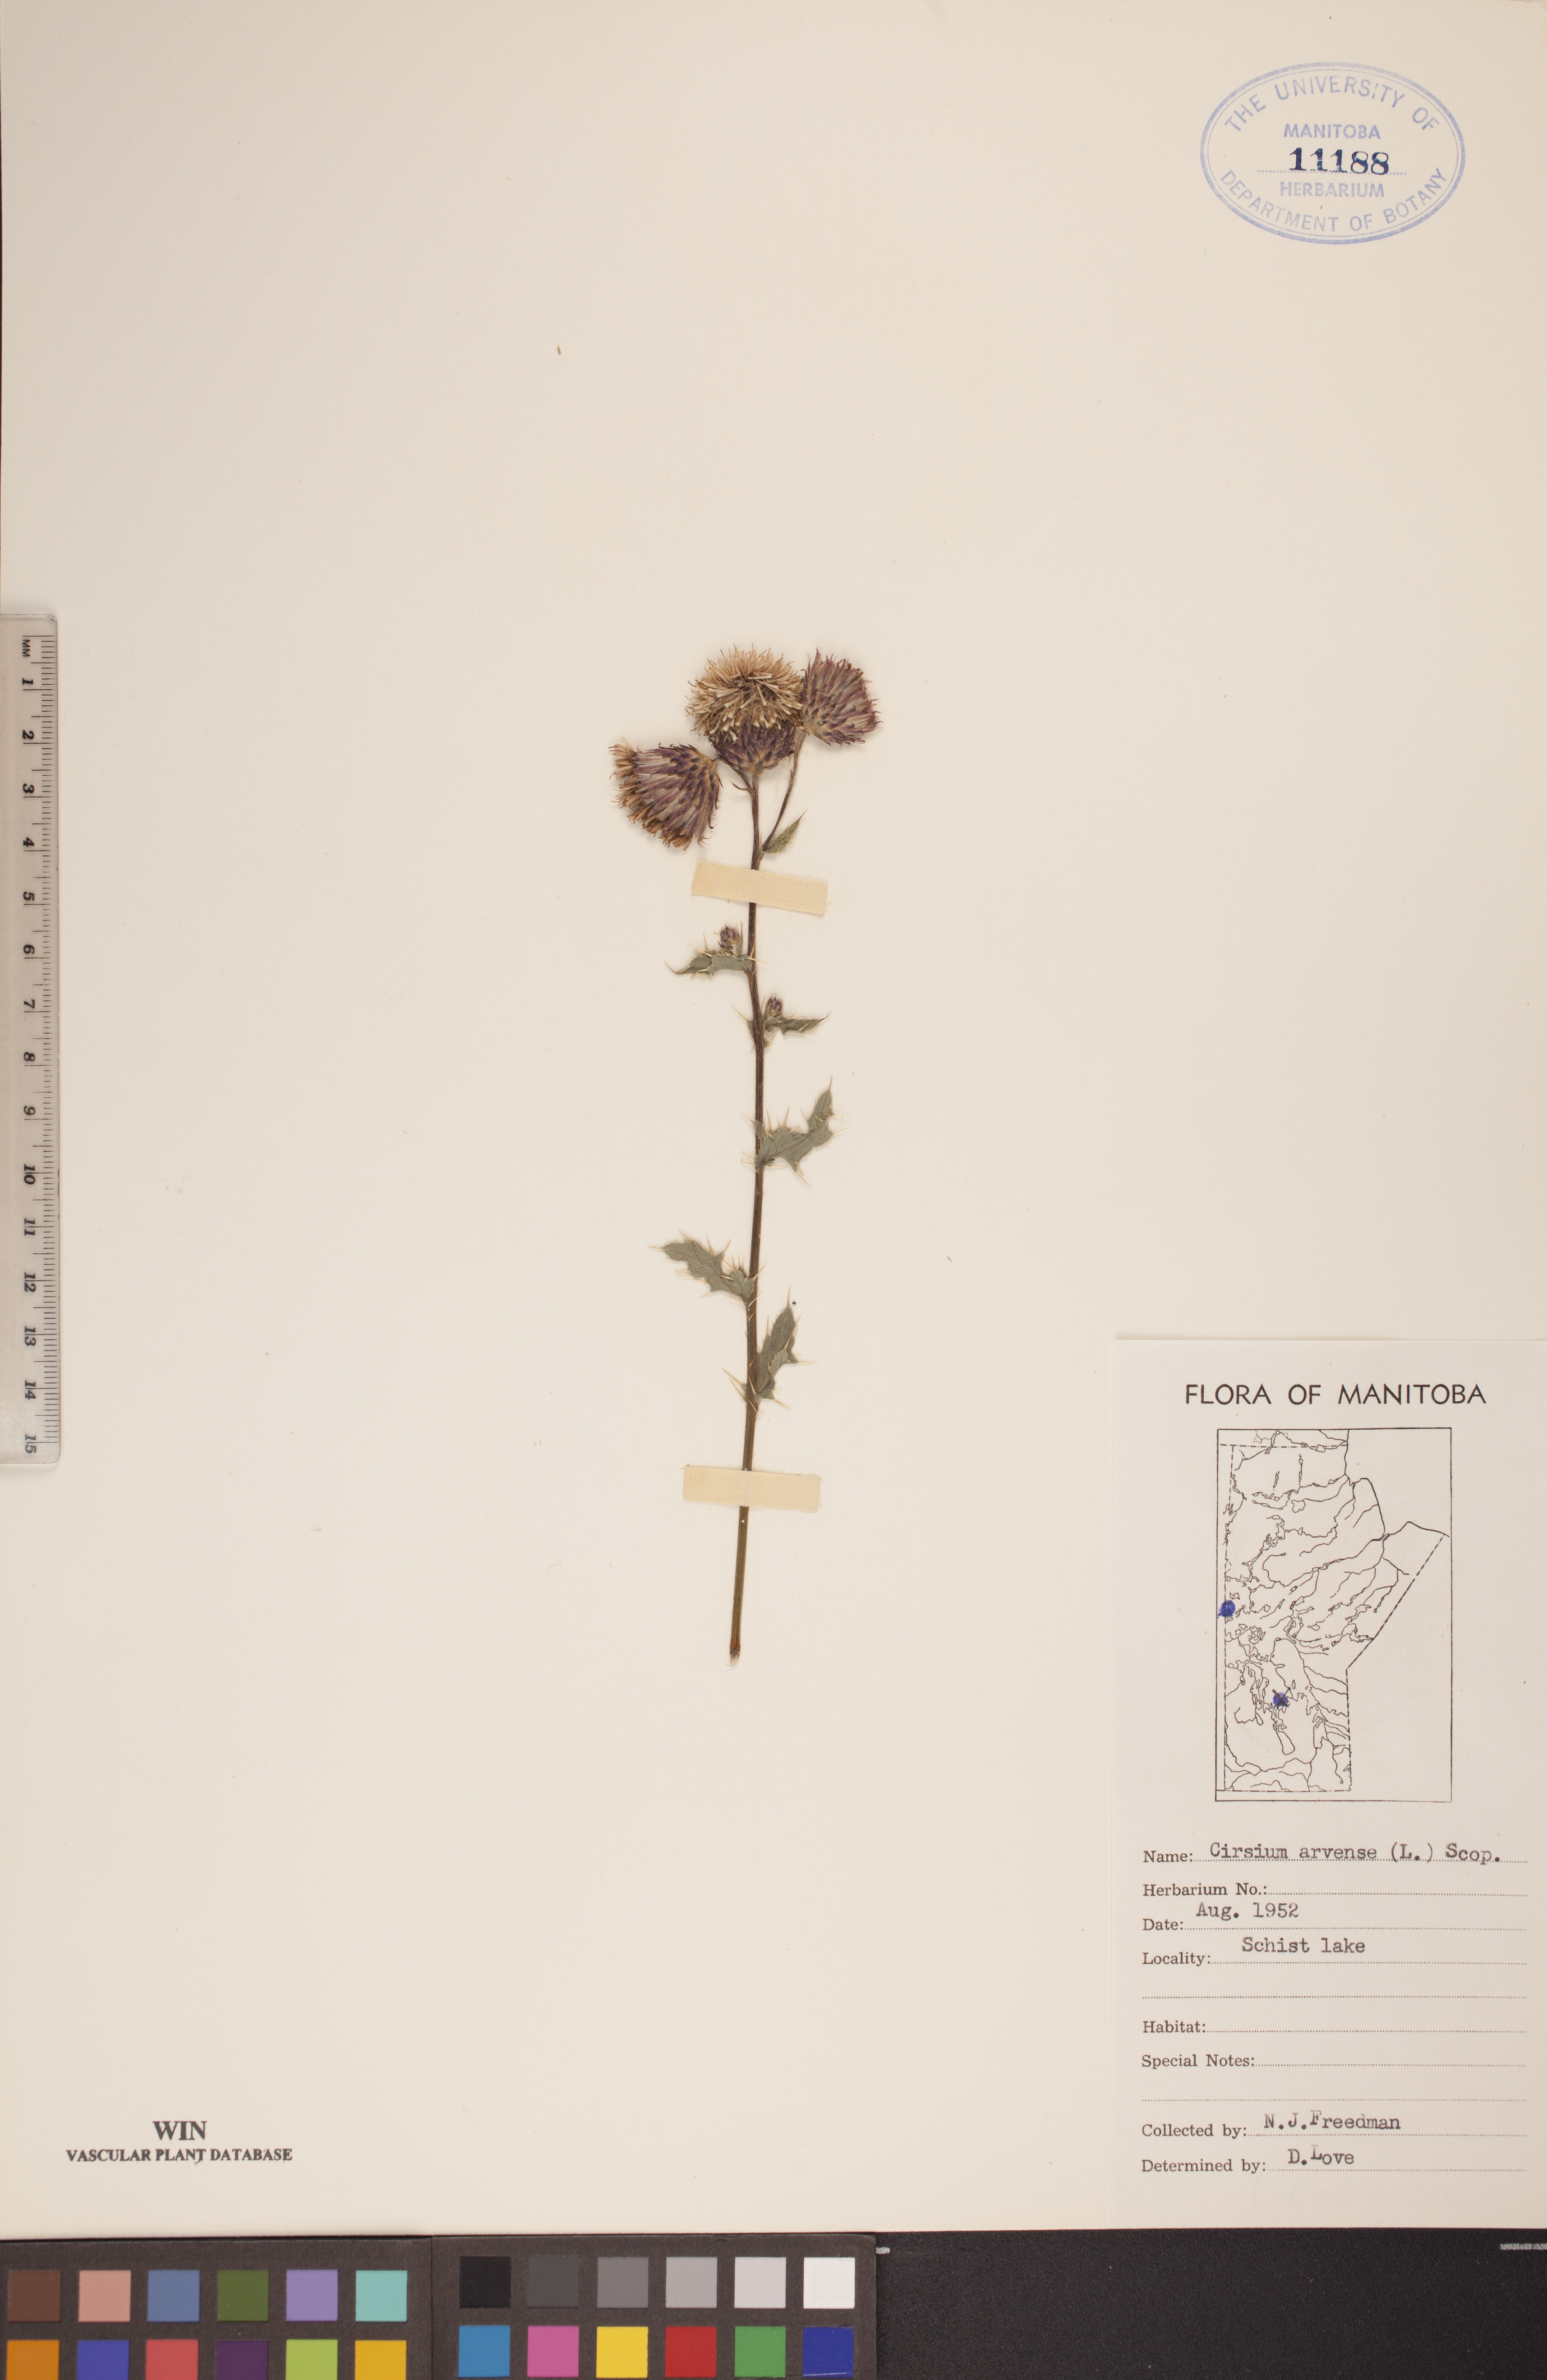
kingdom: Plantae
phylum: Tracheophyta
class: Magnoliopsida
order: Asterales
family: Asteraceae
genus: Cirsium
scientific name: Cirsium arvense
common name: Creeping thistle
